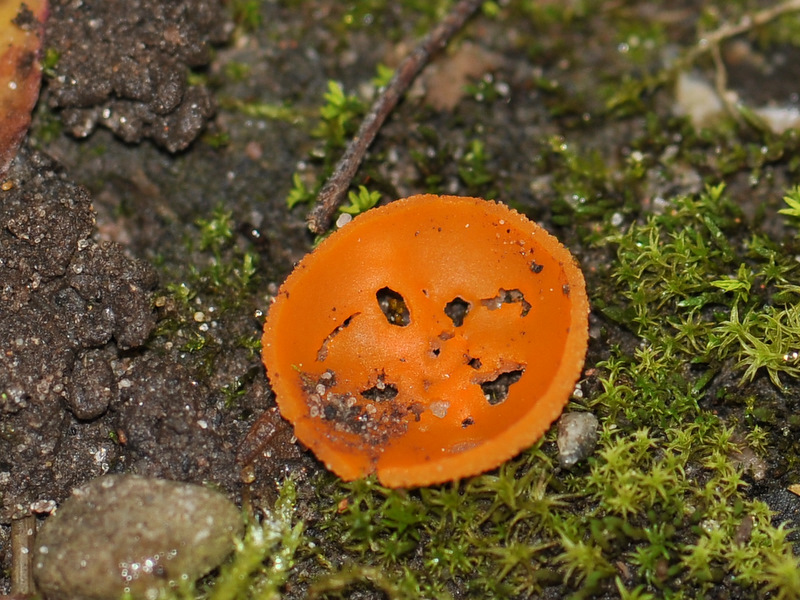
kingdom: Fungi
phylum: Ascomycota
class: Pezizomycetes
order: Pezizales
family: Pyronemataceae
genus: Aleuria
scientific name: Aleuria aurantia
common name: almindelig orangebæger
